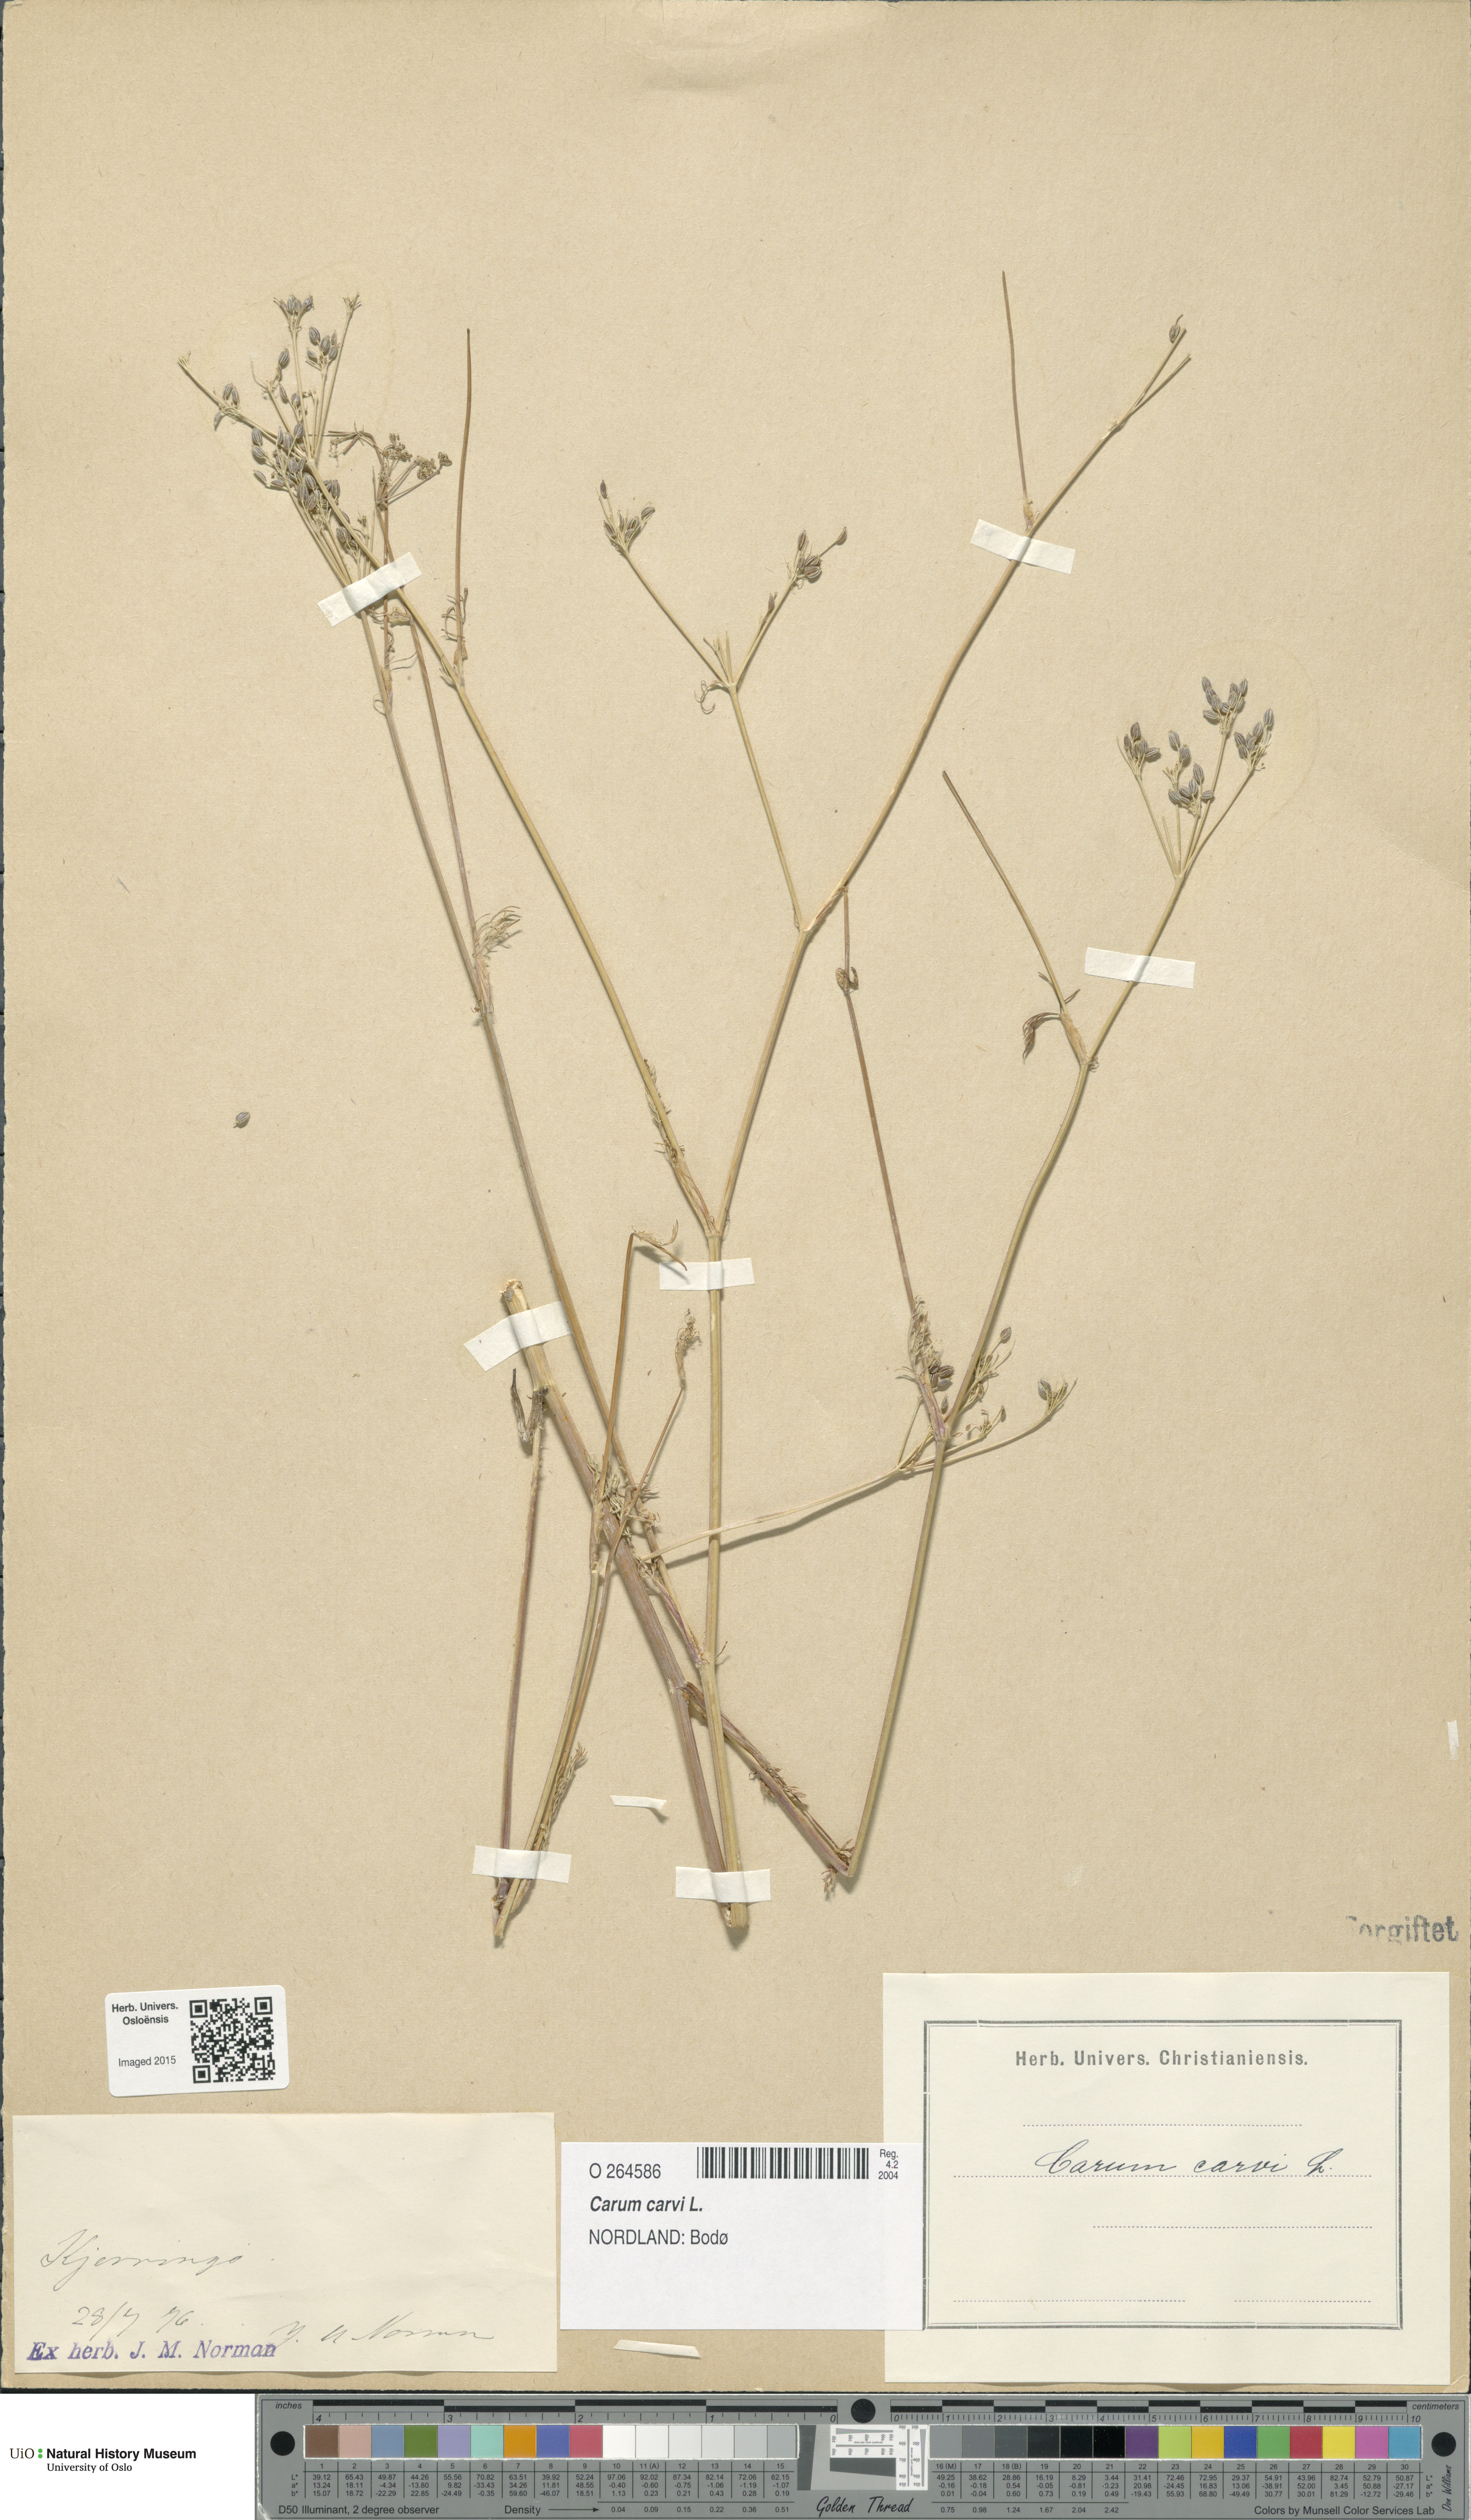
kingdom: Plantae
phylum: Tracheophyta
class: Magnoliopsida
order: Apiales
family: Apiaceae
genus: Carum
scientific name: Carum carvi
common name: Caraway
